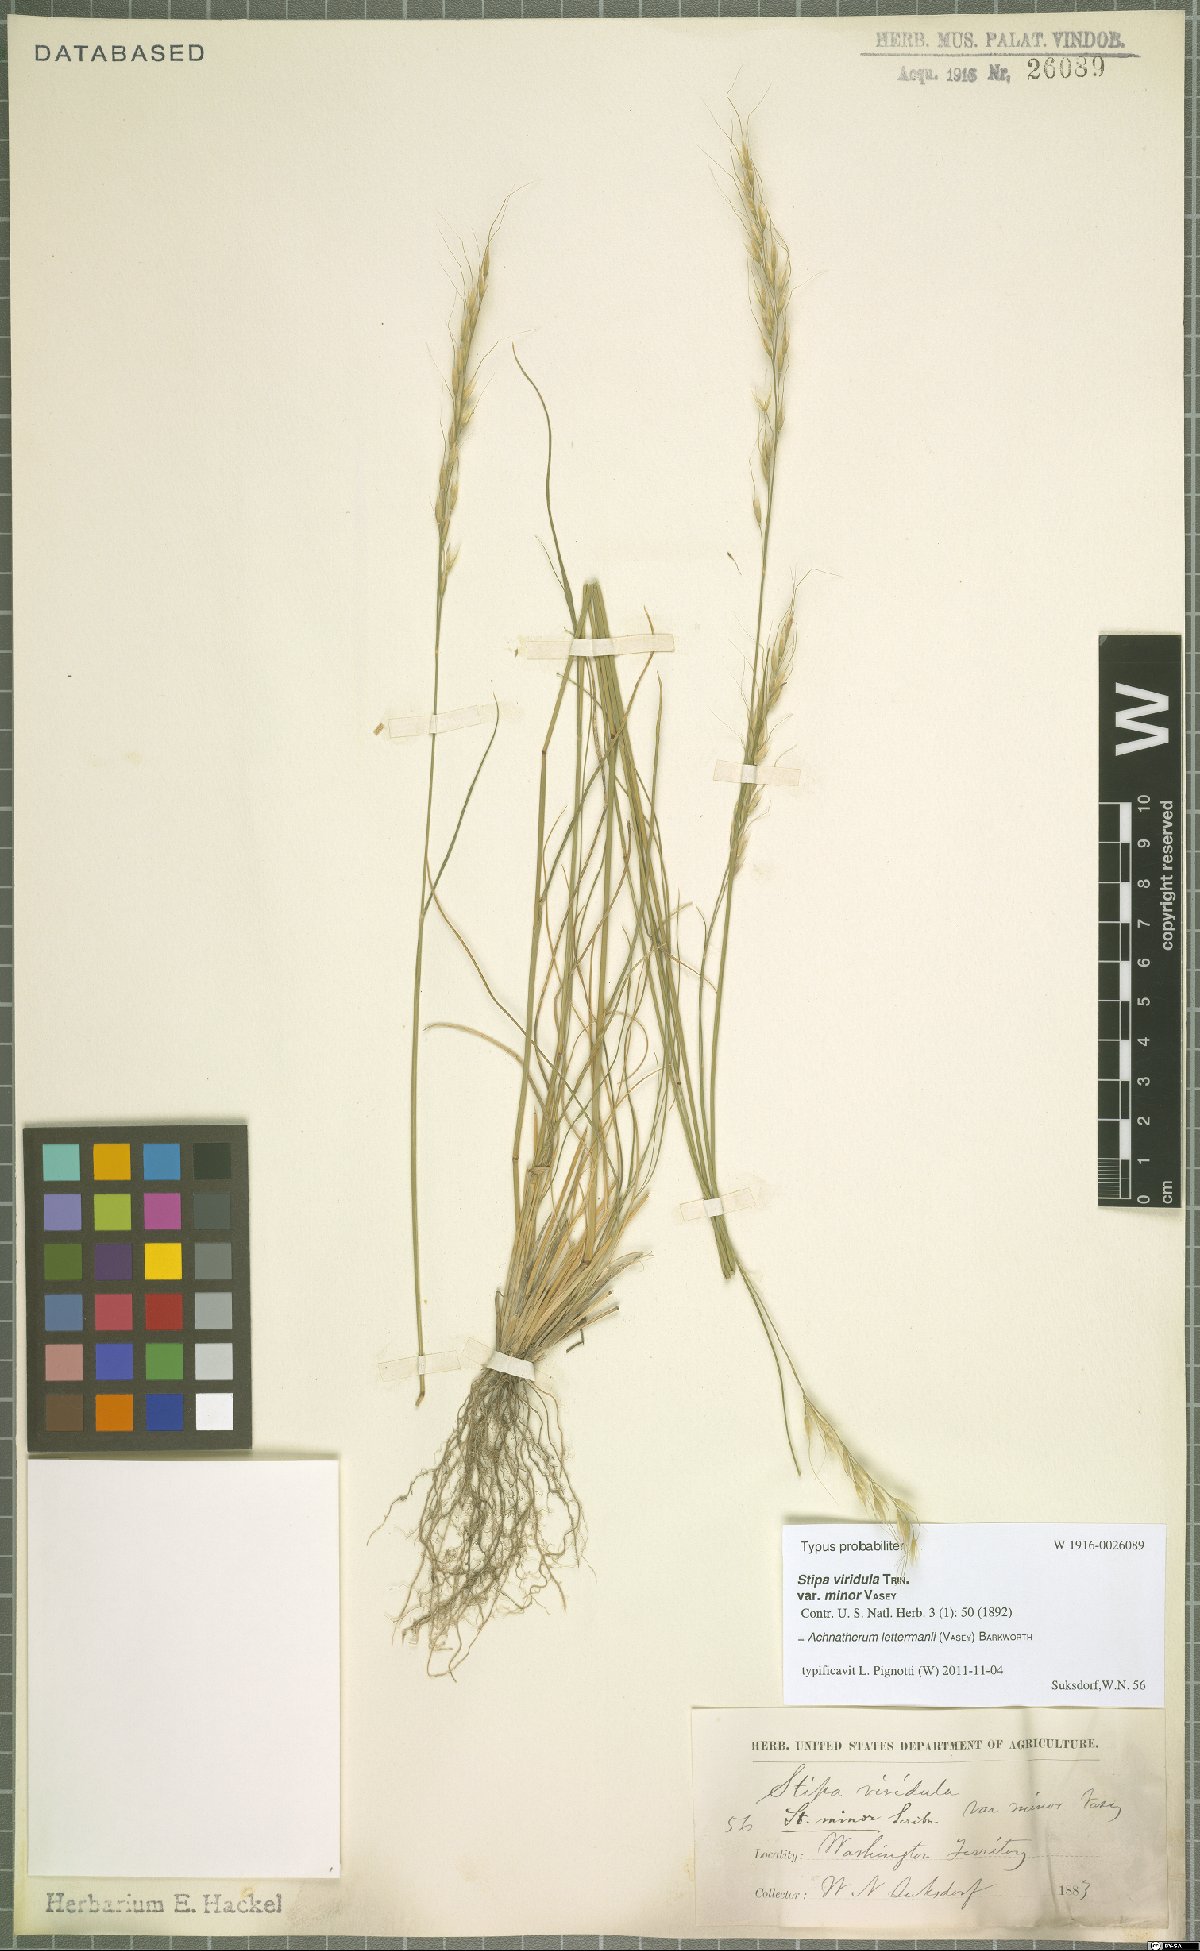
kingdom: Plantae
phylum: Tracheophyta
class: Liliopsida
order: Poales
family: Poaceae
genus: Eriocoma
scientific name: Eriocoma lettermanii
